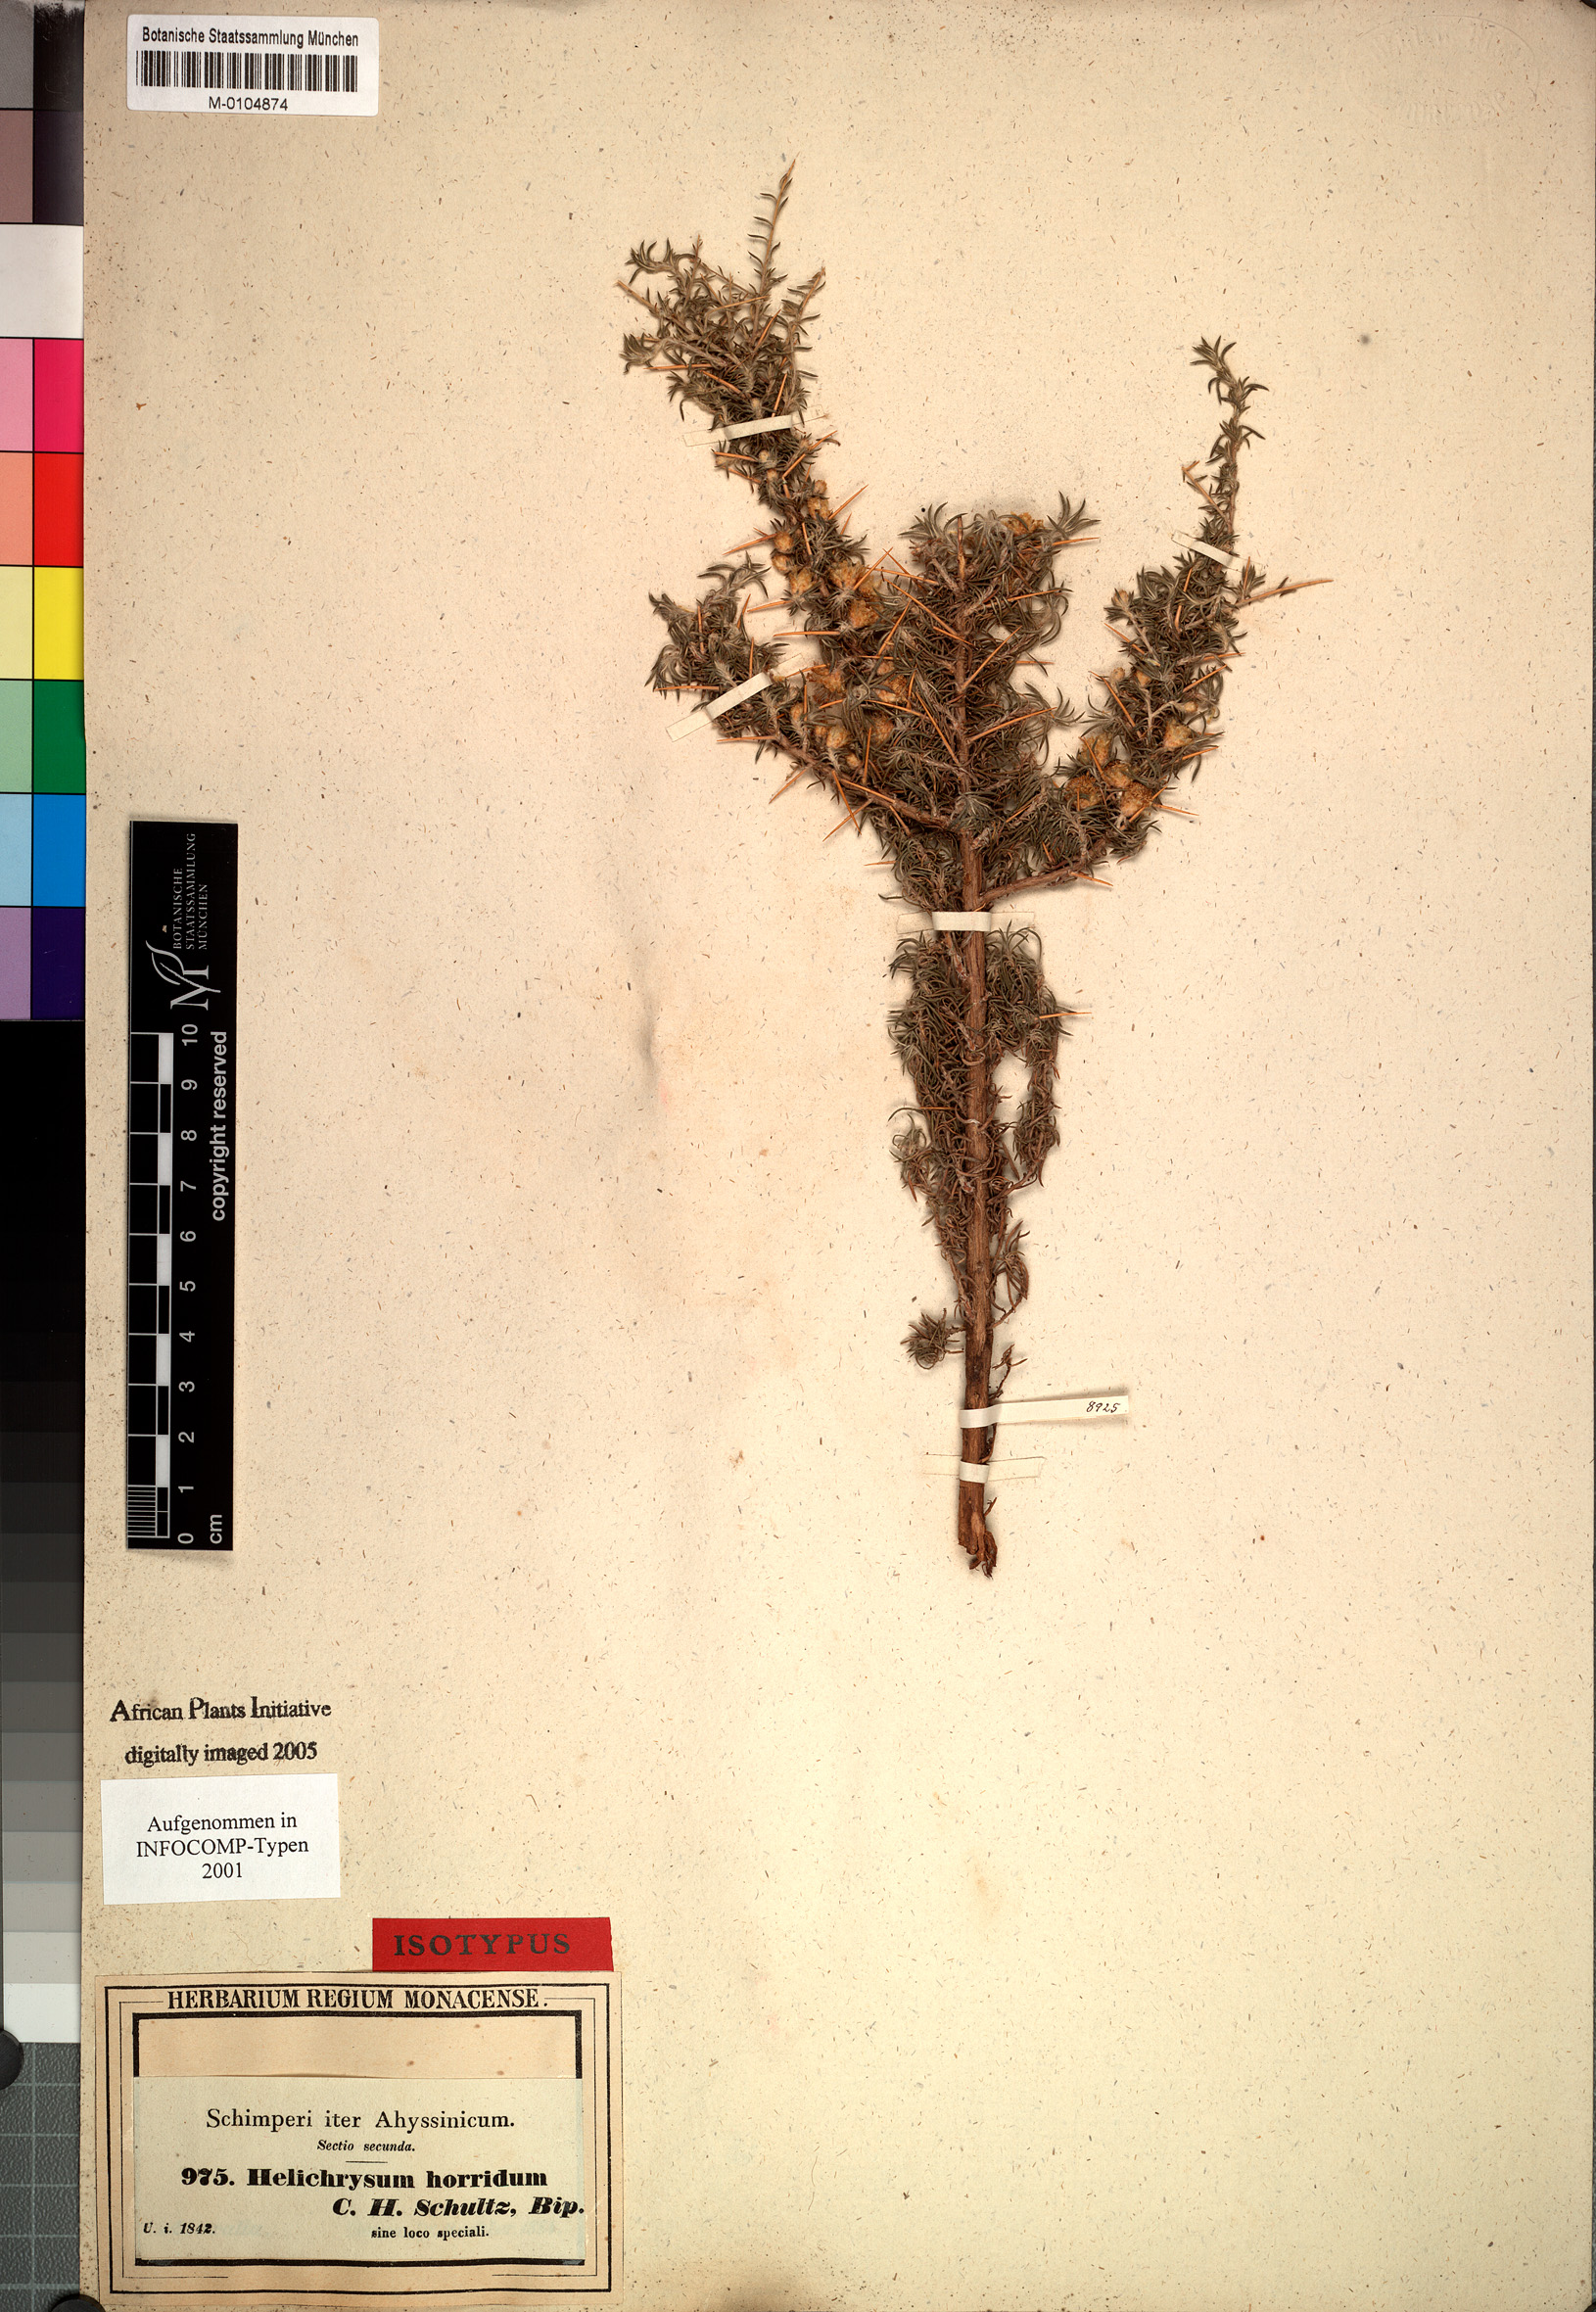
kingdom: Plantae
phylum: Tracheophyta
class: Magnoliopsida
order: Asterales
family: Asteraceae
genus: Helichrysum
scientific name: Helichrysum horridum
